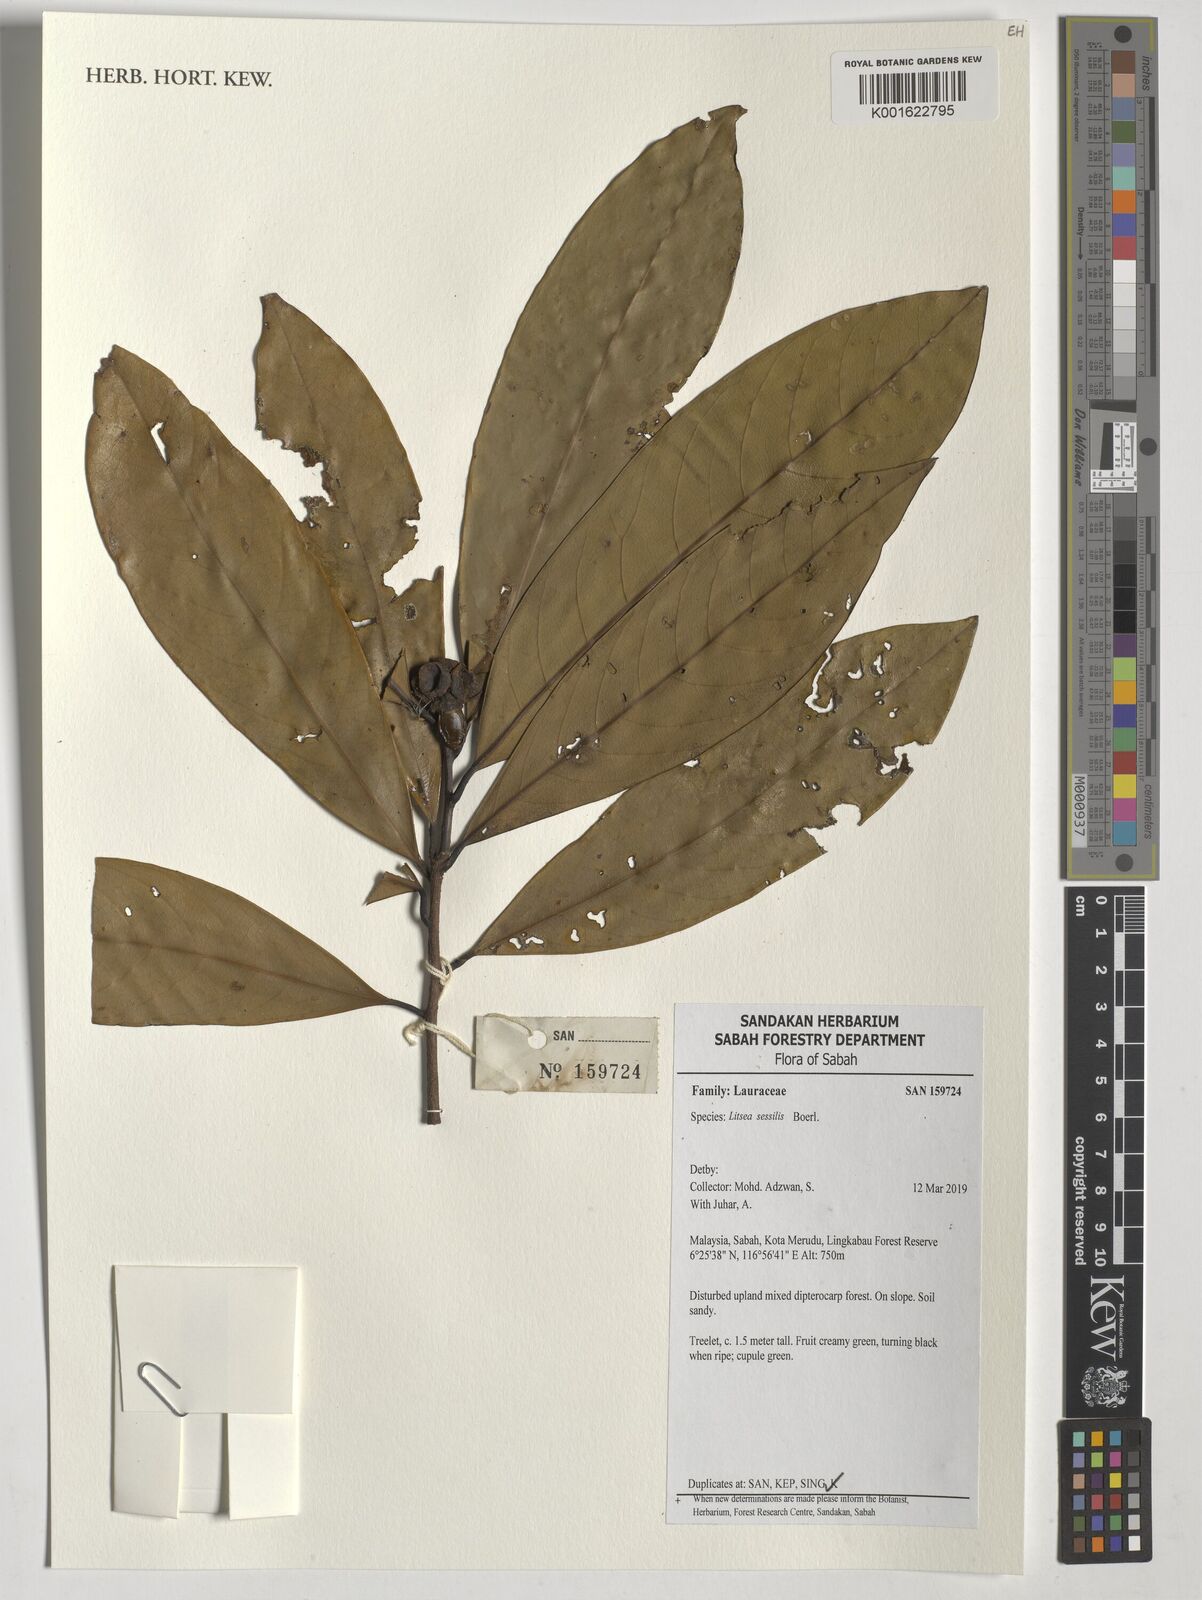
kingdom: Plantae
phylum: Tracheophyta
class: Magnoliopsida
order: Laurales
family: Lauraceae
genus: Litsea
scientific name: Litsea sessilis
